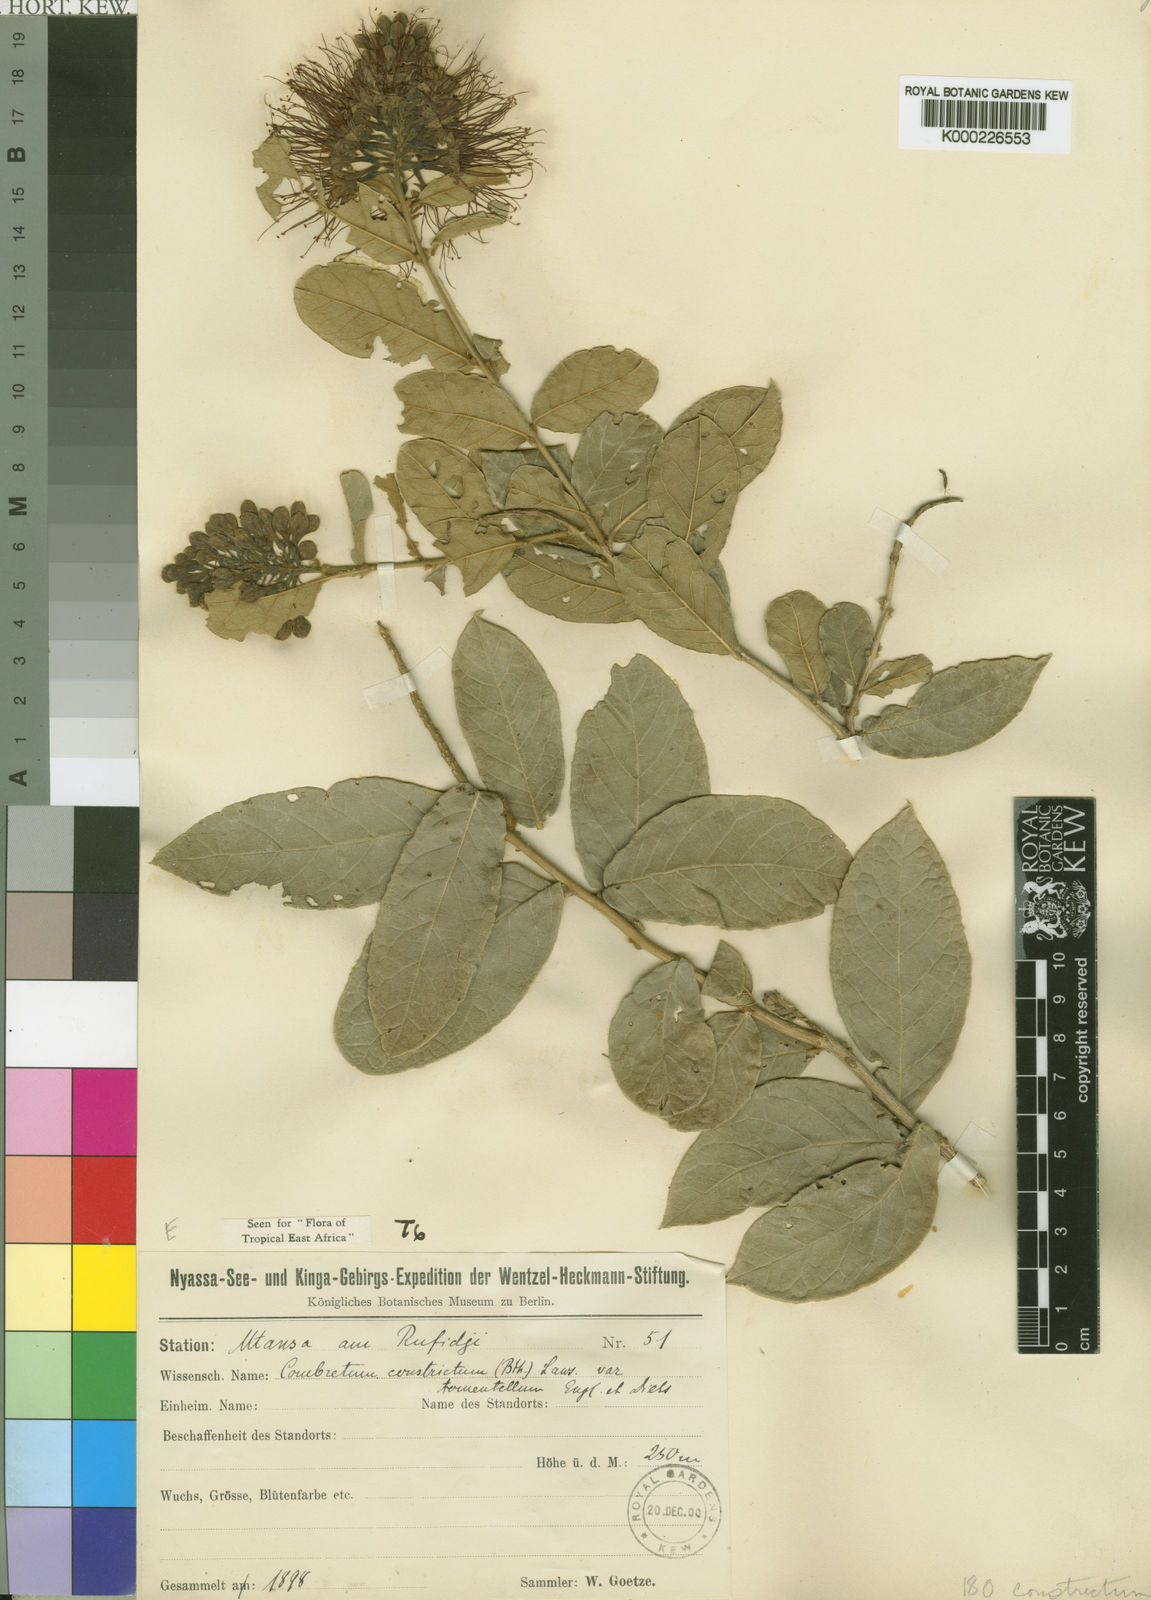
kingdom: Plantae
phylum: Tracheophyta
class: Magnoliopsida
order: Myrtales
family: Combretaceae
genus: Combretum
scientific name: Combretum constrictum
